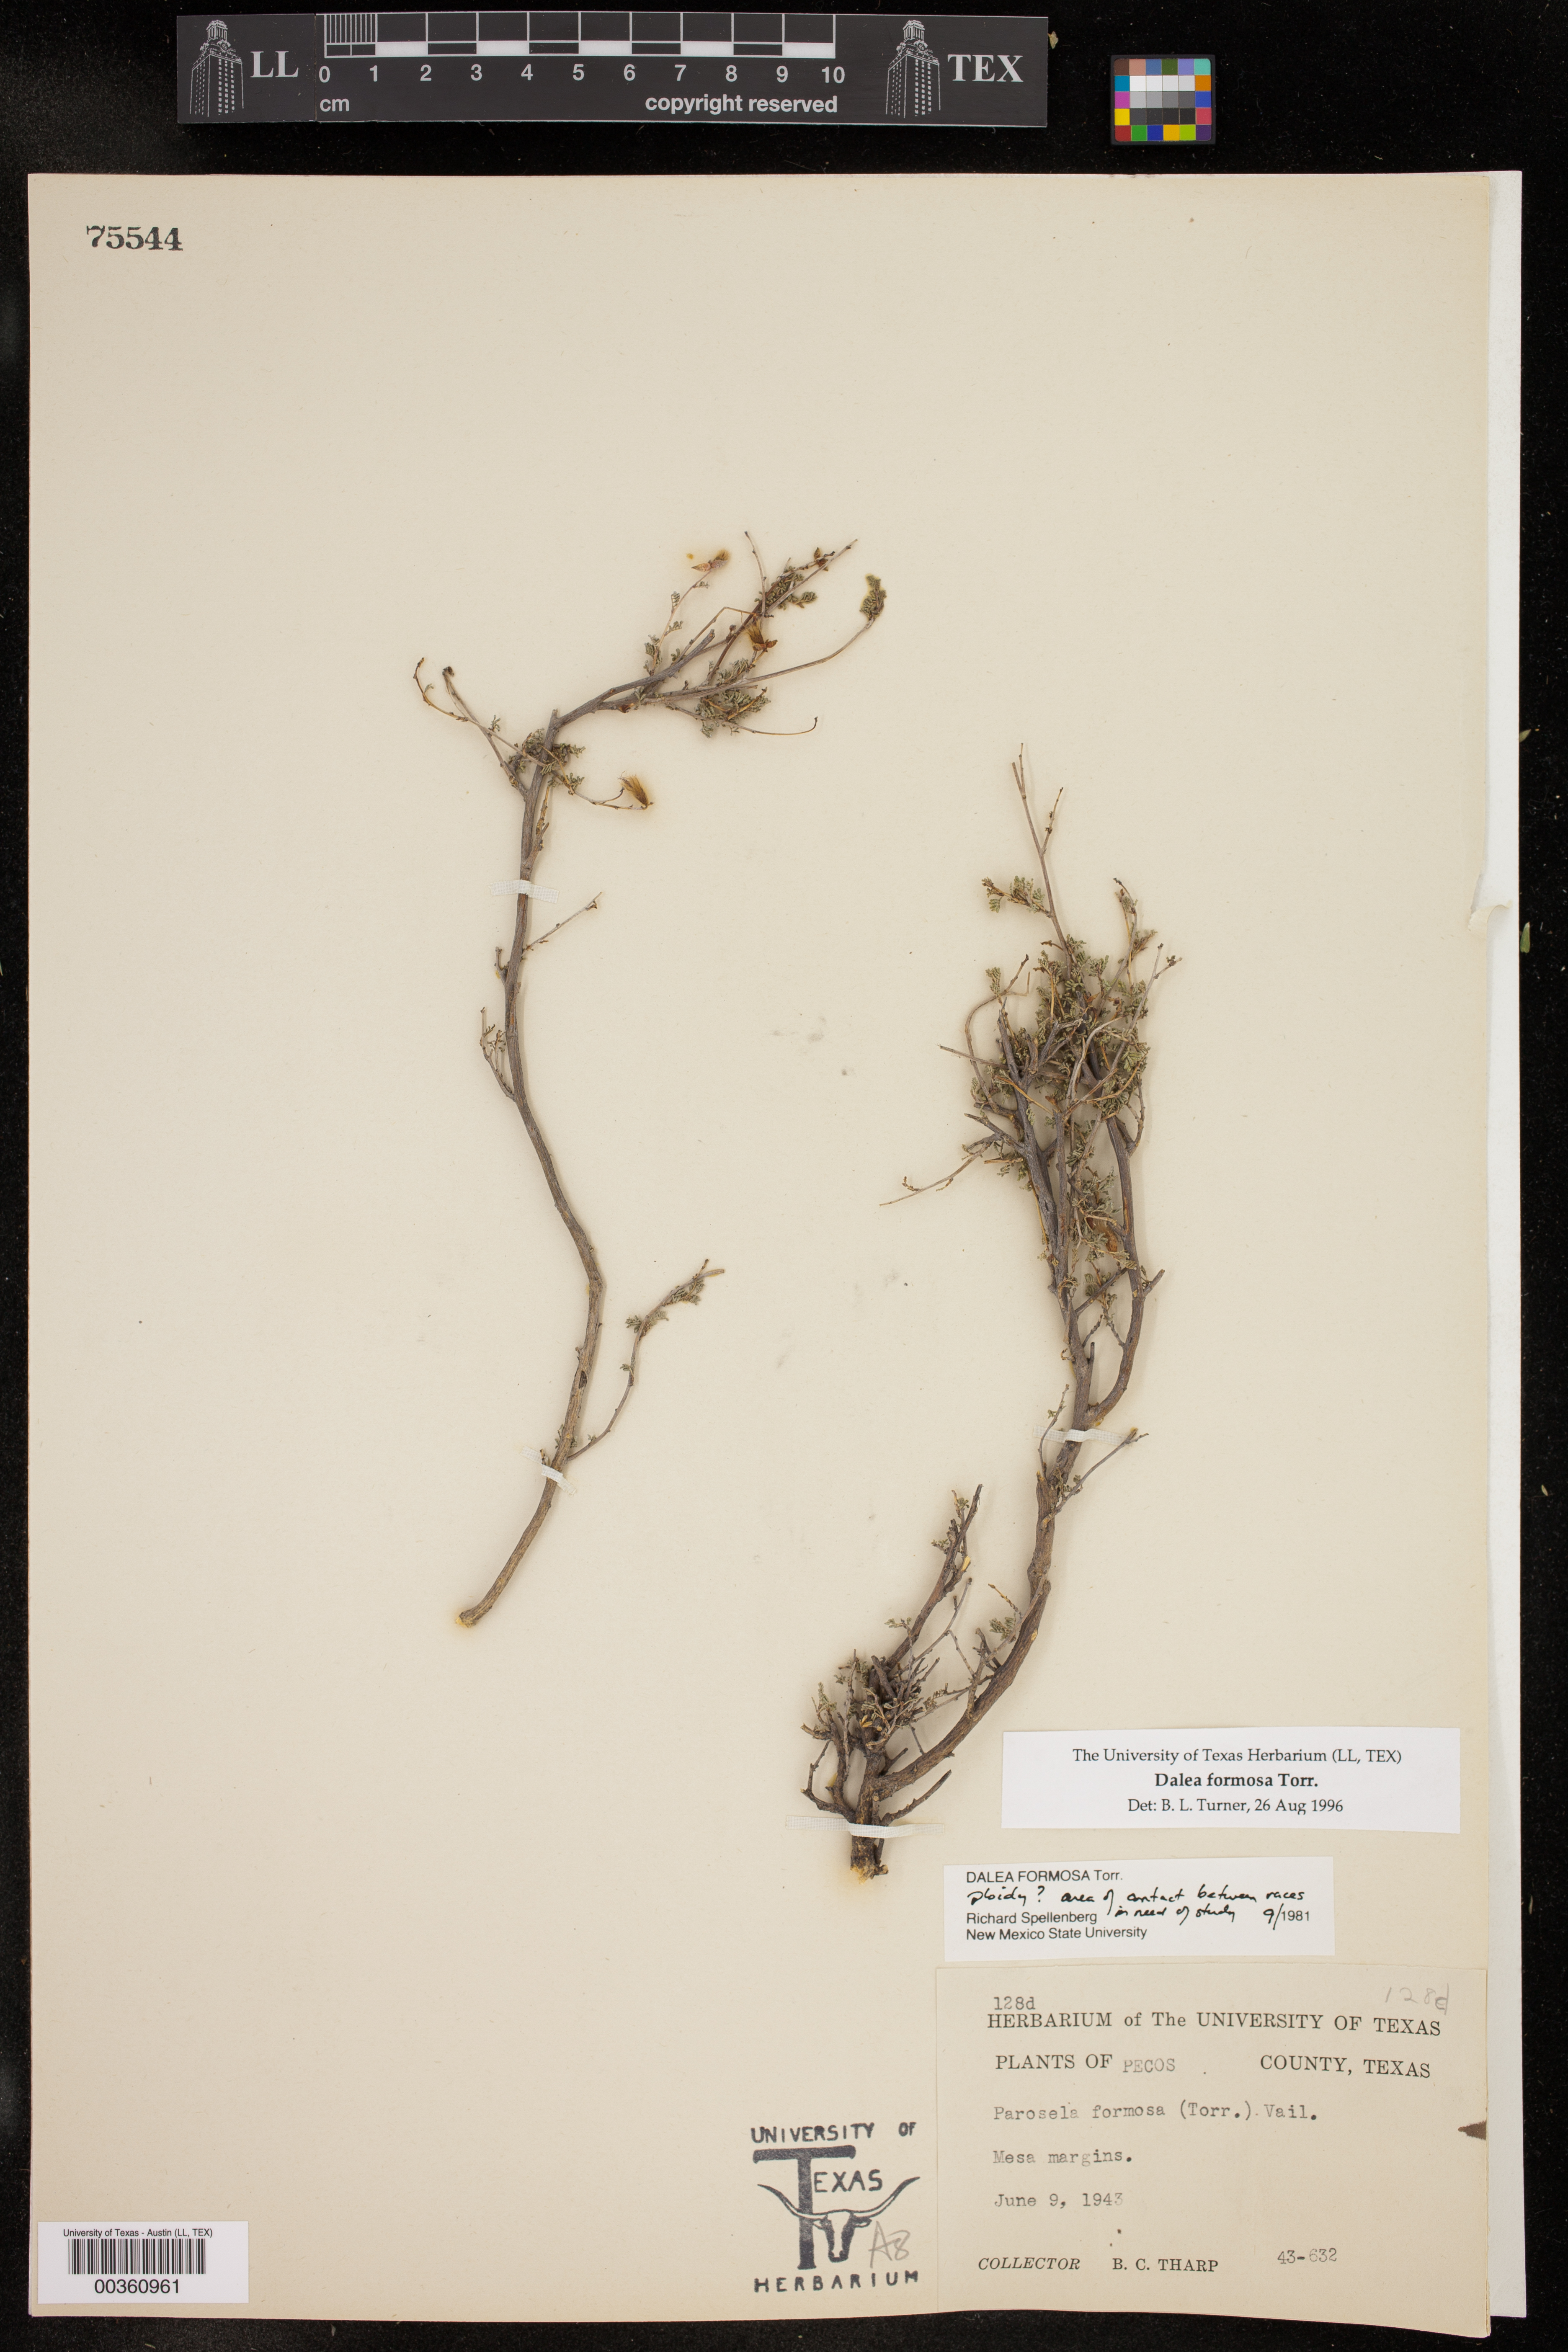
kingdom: Plantae
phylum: Tracheophyta
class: Magnoliopsida
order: Fabales
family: Fabaceae
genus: Dalea
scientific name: Dalea formosa
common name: Feather-plume dalea
